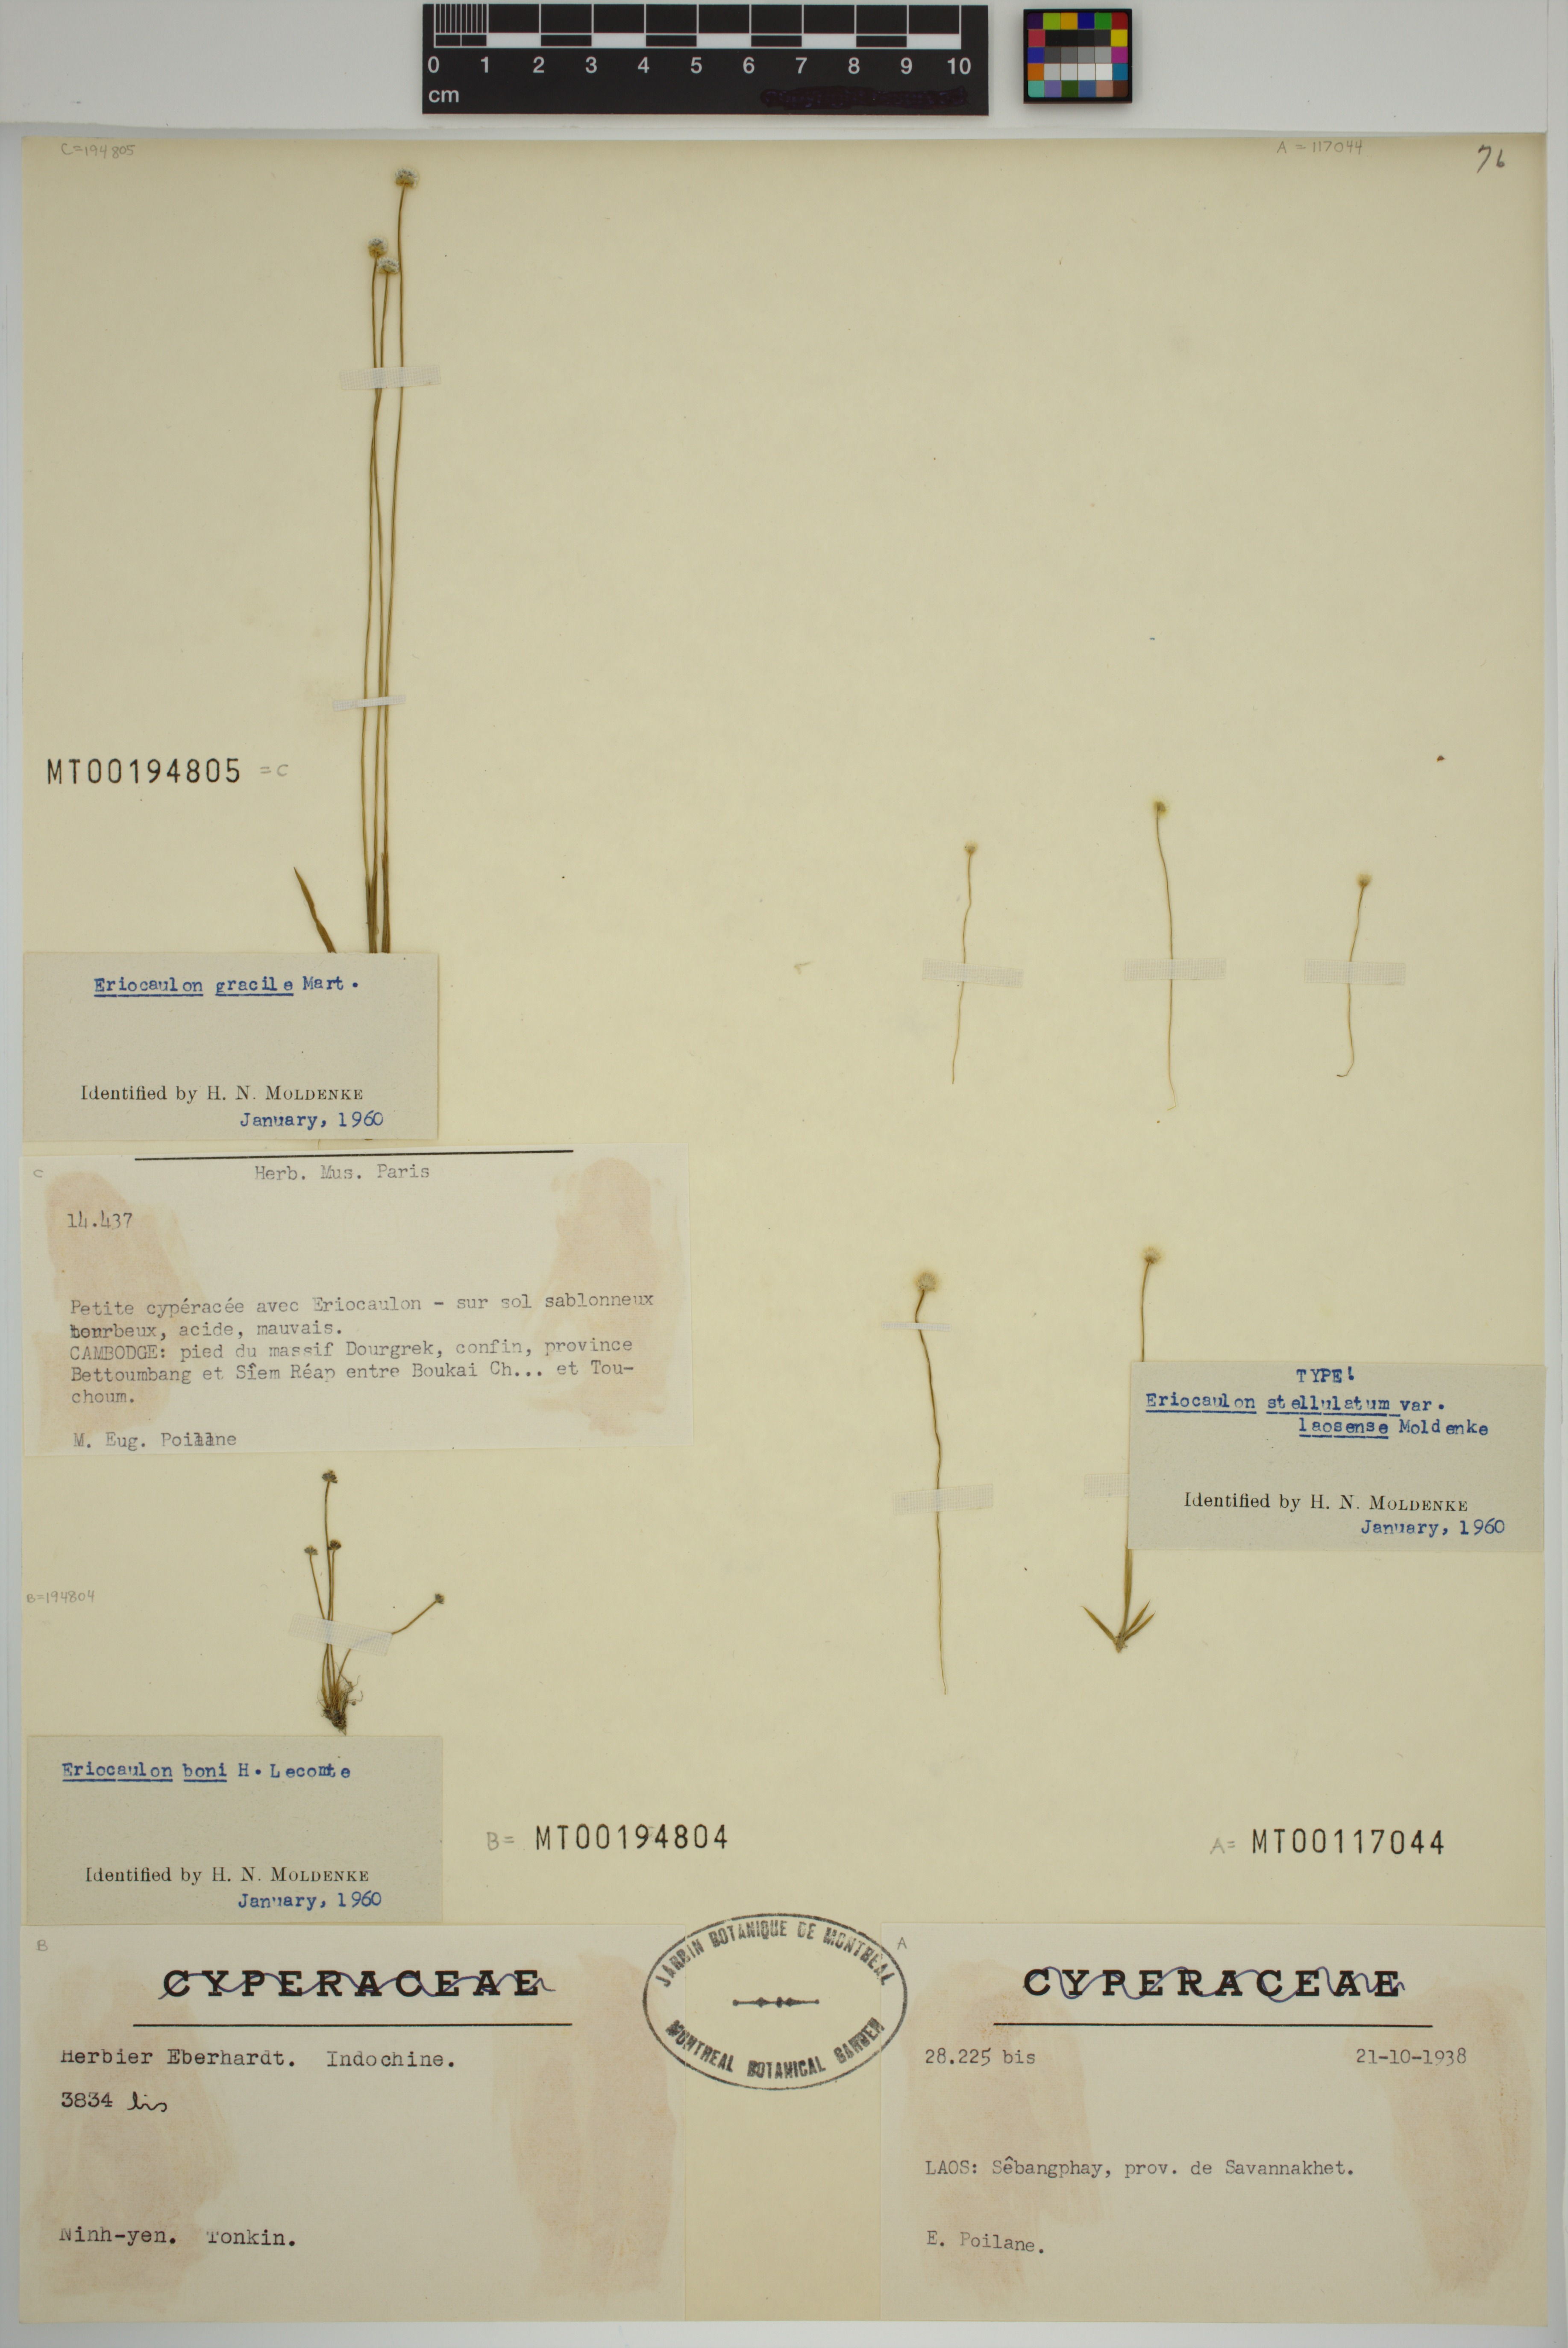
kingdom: Plantae
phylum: Tracheophyta
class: Liliopsida
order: Poales
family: Eriocaulaceae
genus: Eriocaulon
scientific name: Eriocaulon stellulatum
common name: Starry pipewort
